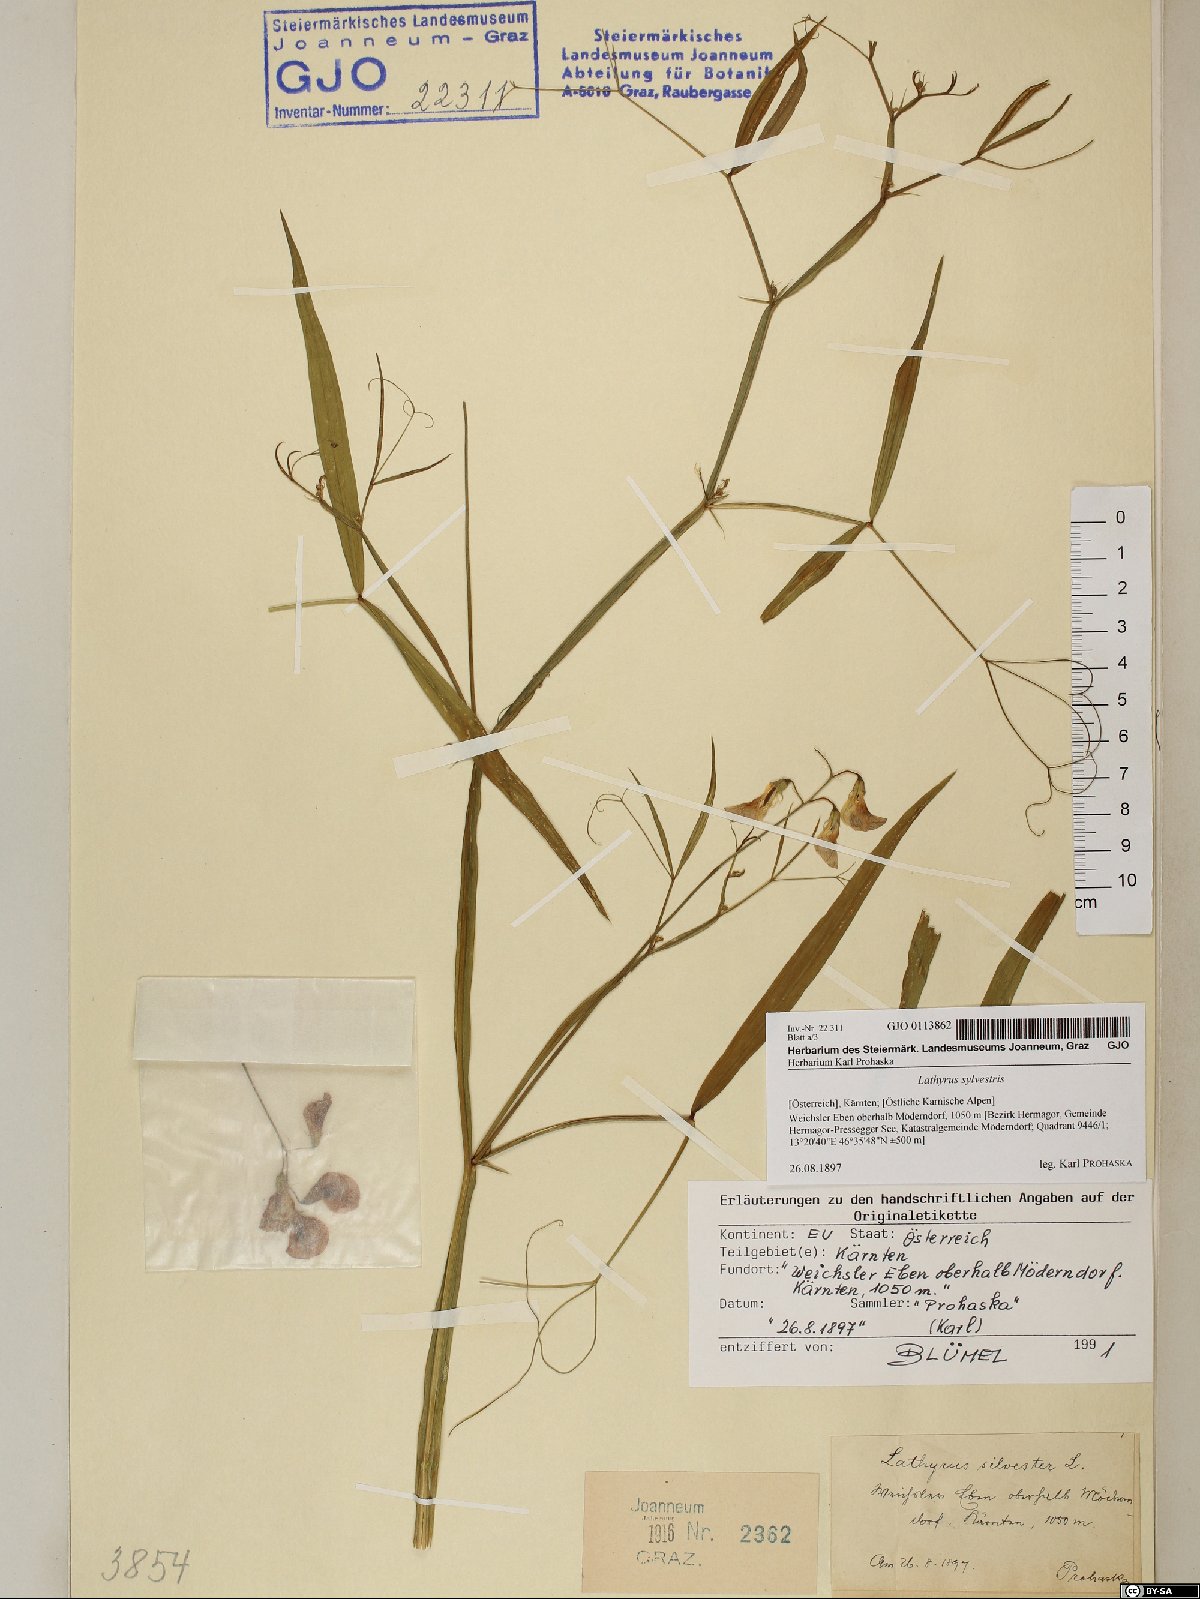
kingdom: Plantae
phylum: Tracheophyta
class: Magnoliopsida
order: Fabales
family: Fabaceae
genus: Lathyrus
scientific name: Lathyrus sylvestris
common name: Flat pea
